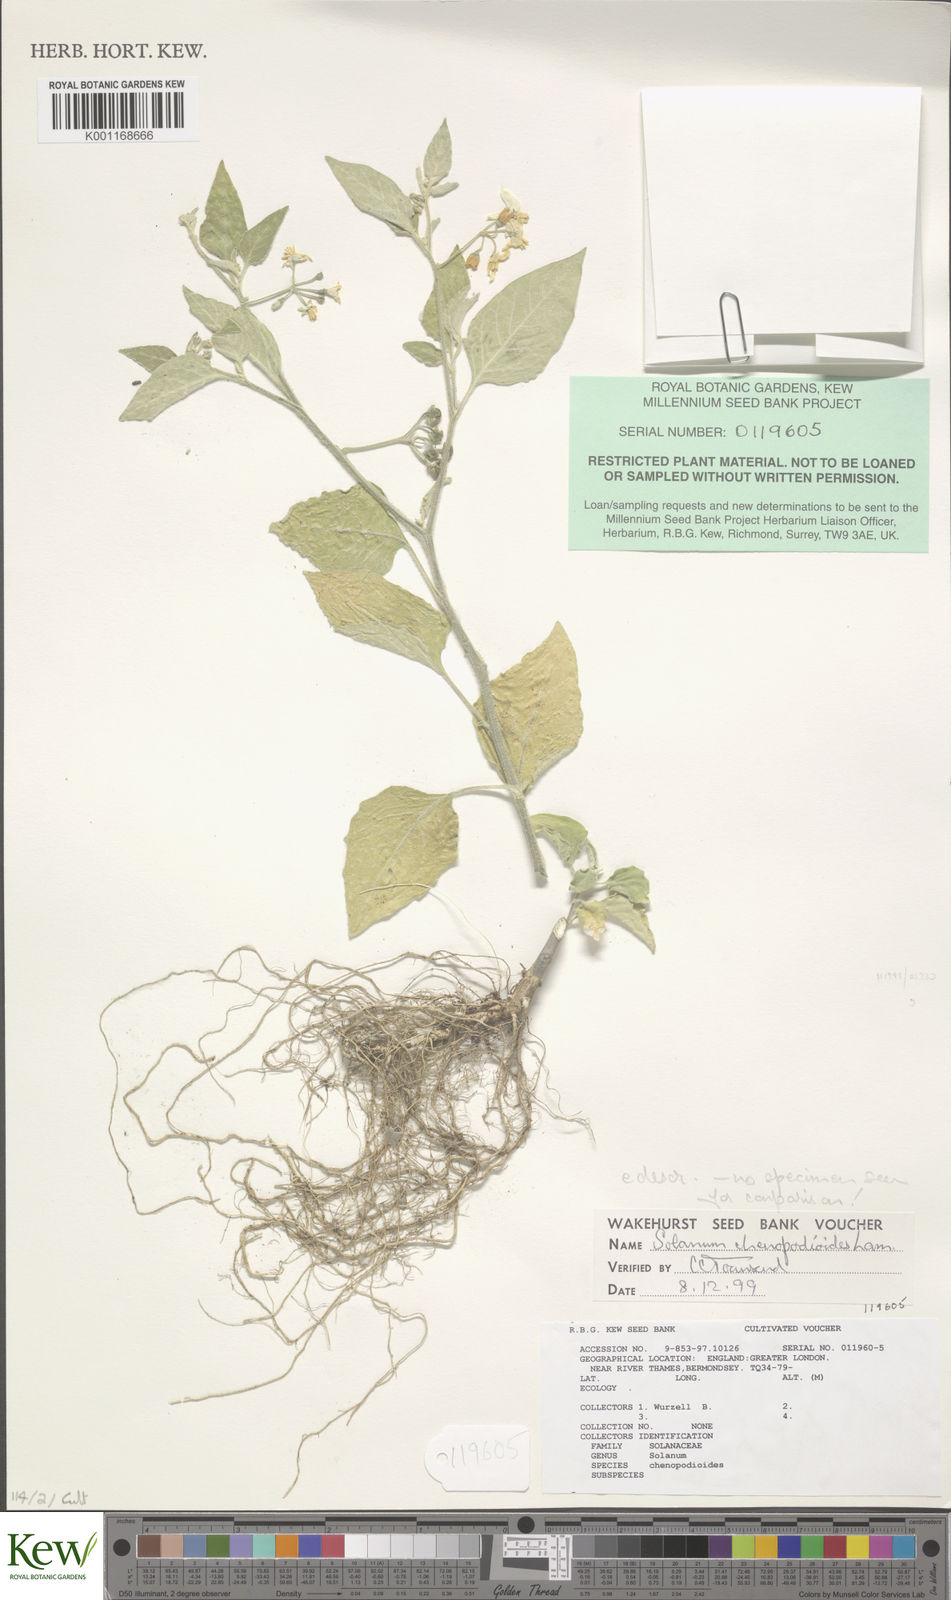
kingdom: Plantae
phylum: Tracheophyta
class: Magnoliopsida
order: Solanales
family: Solanaceae
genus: Solanum
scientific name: Solanum chenopodioides
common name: Tall nightshade
